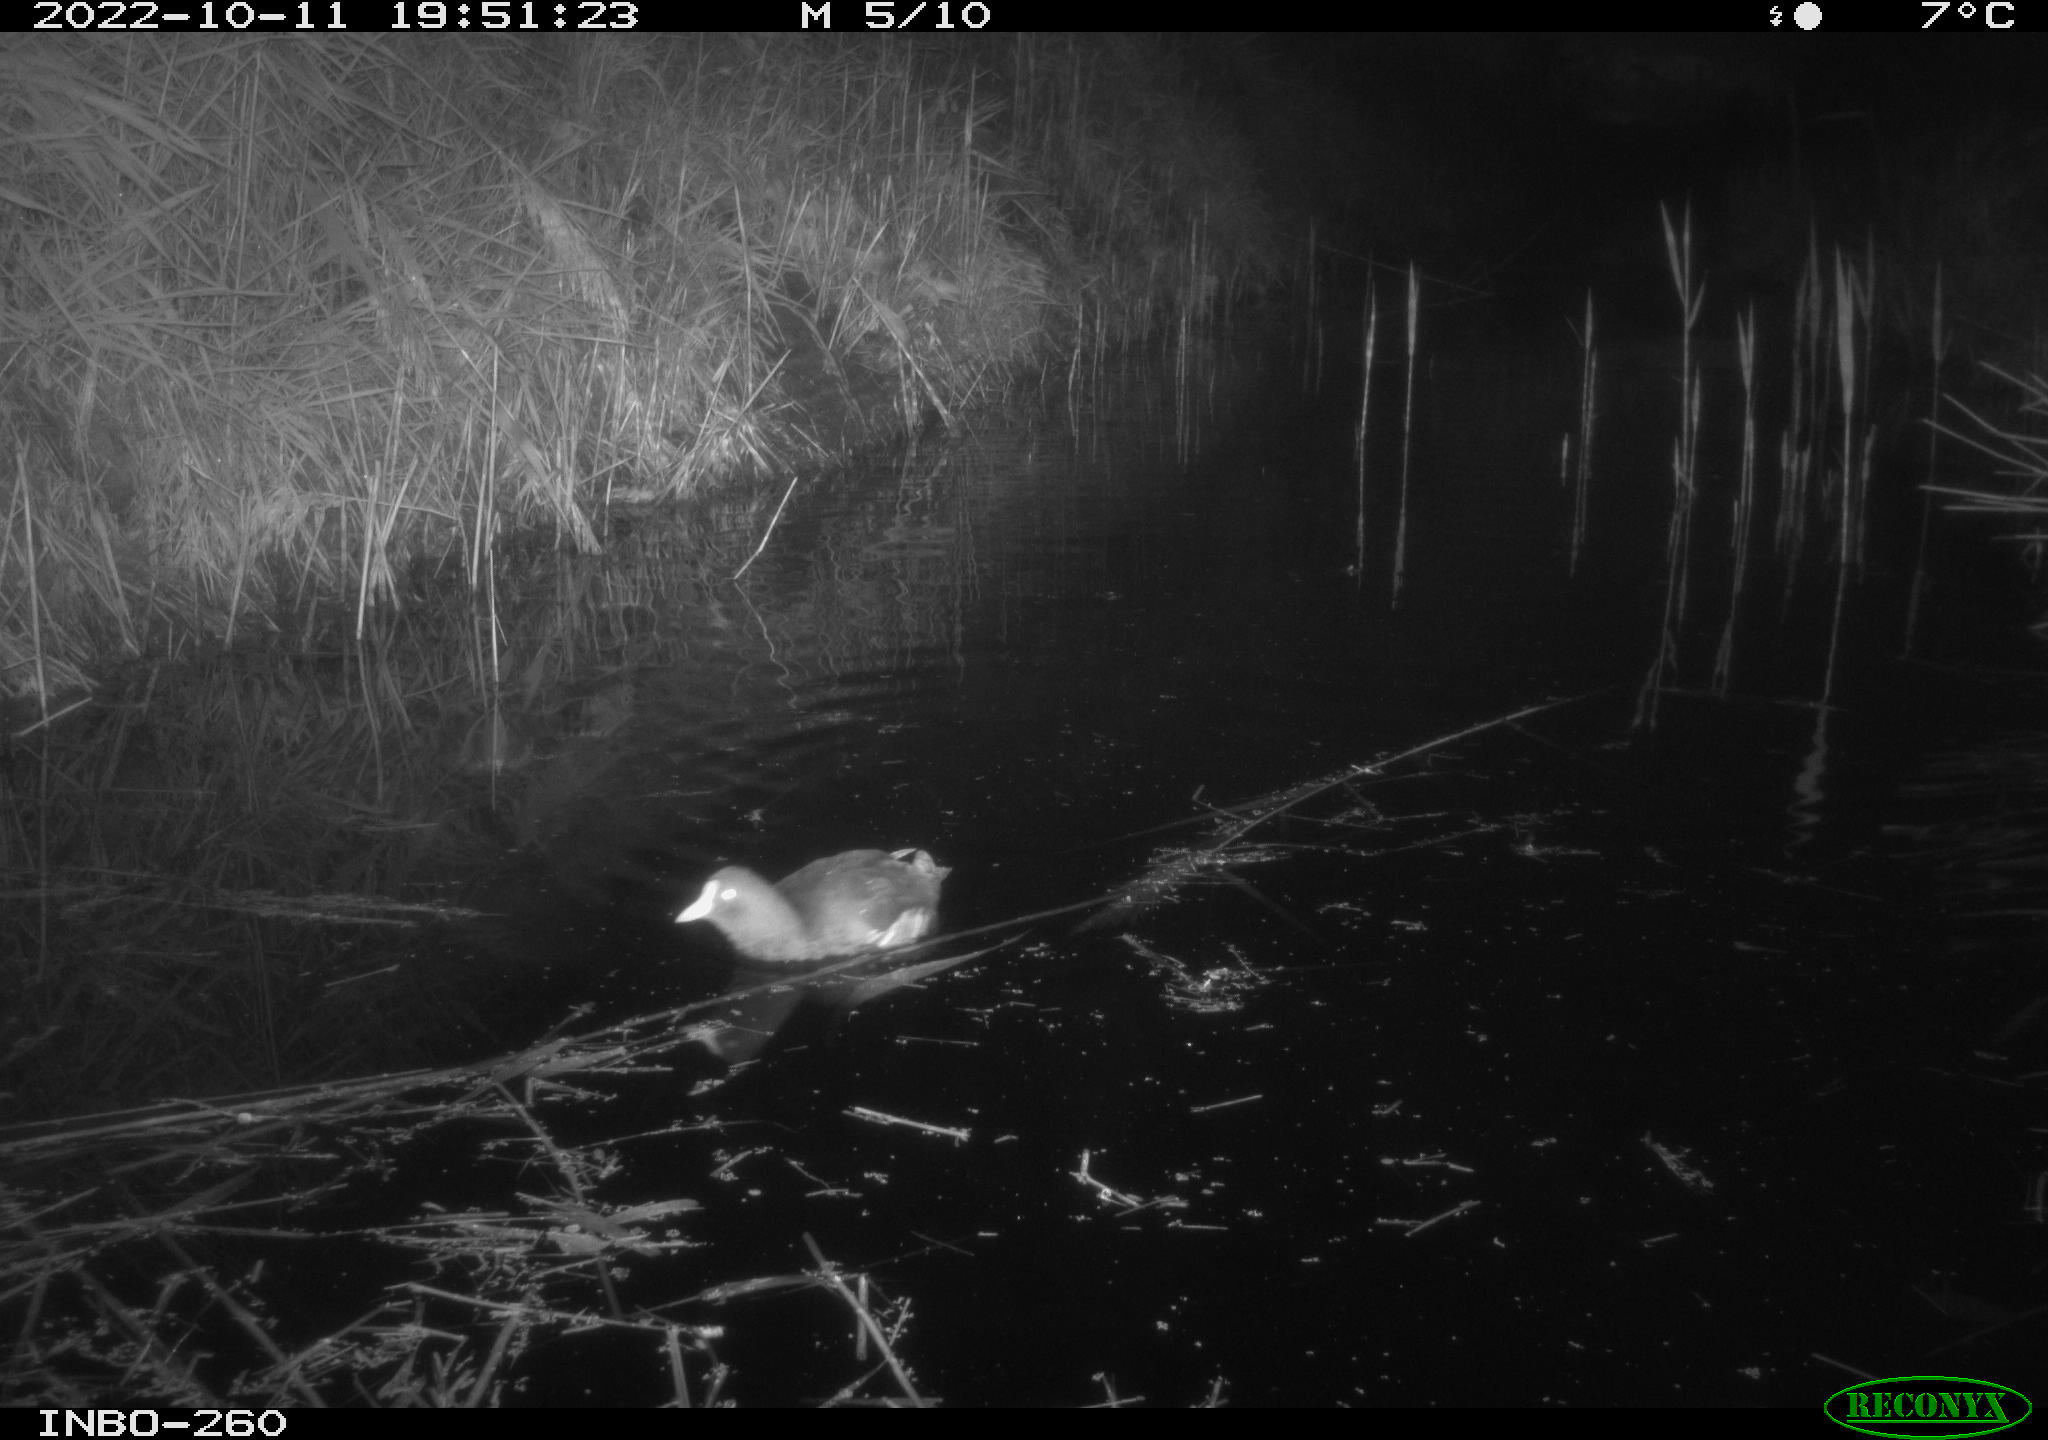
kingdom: Animalia
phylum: Chordata
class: Aves
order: Gruiformes
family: Rallidae
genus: Gallinula
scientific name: Gallinula chloropus
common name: Common moorhen
